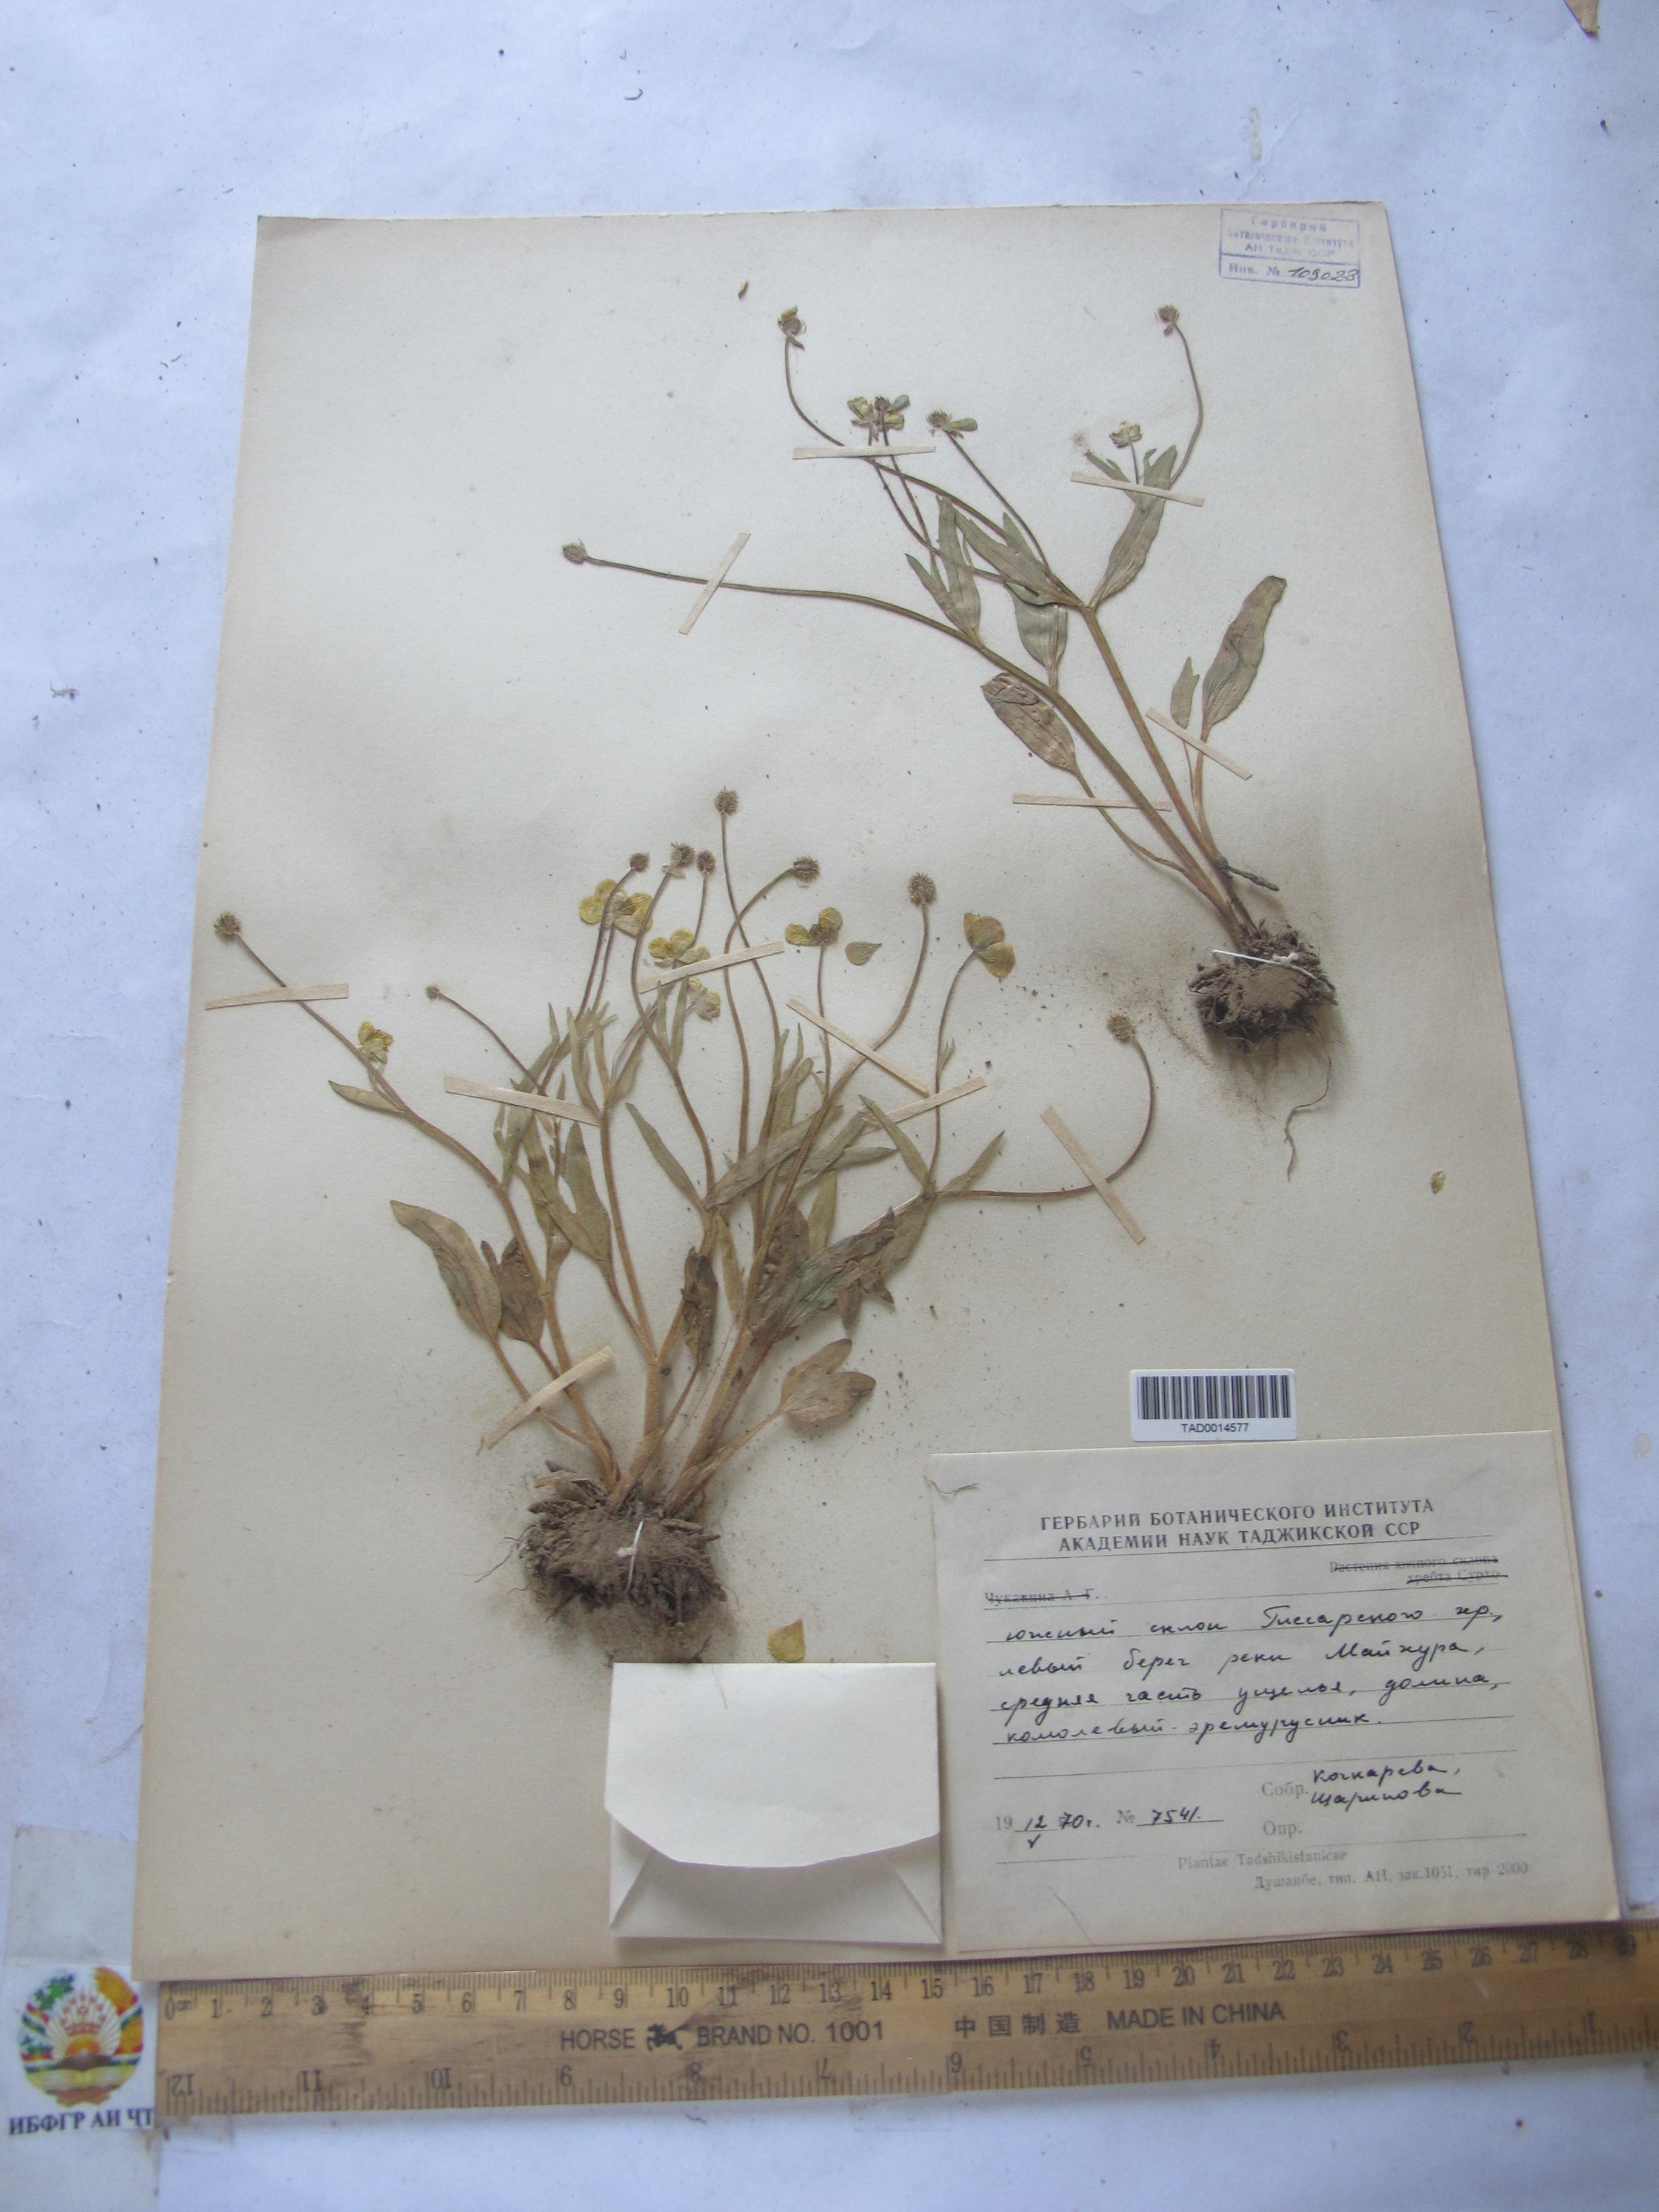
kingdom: Plantae
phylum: Tracheophyta
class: Magnoliopsida
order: Ranunculales
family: Ranunculaceae
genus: Ranunculus
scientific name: Ranunculus paucidentatus
